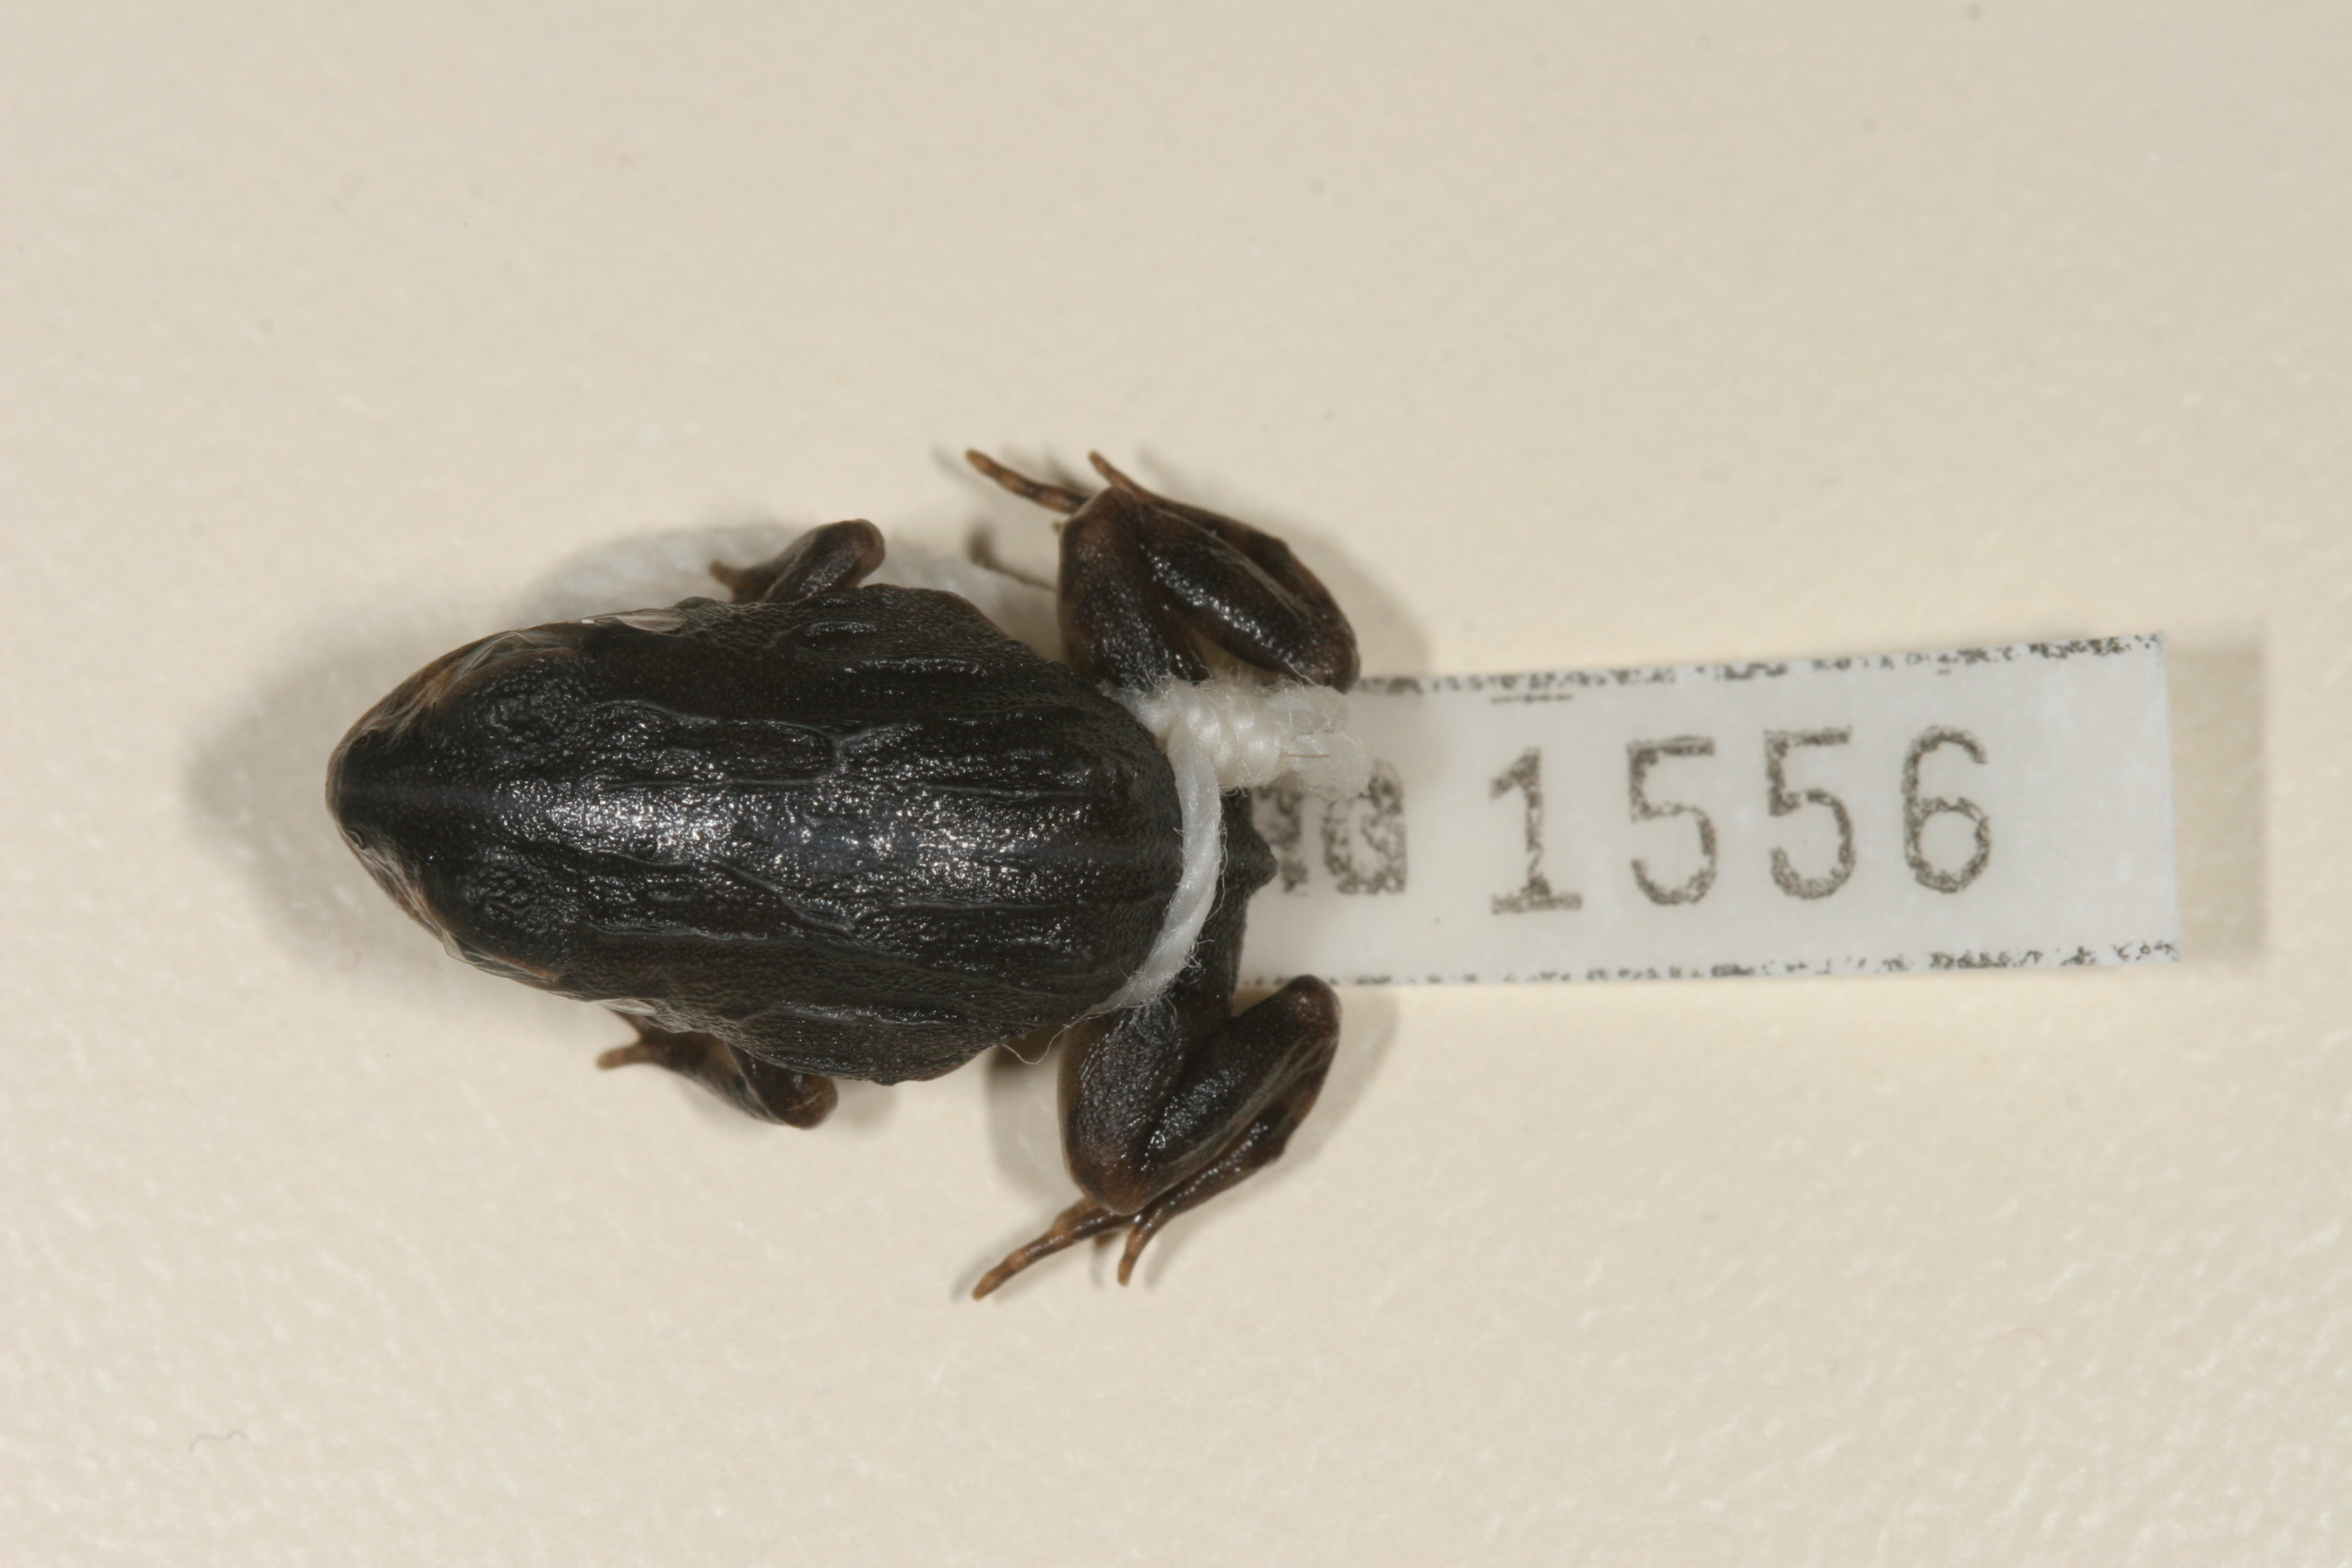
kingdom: Animalia
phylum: Chordata
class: Amphibia
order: Anura
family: Pyxicephalidae
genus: Pyxicephalus
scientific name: Pyxicephalus edulis
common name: Peter's bullfrog
